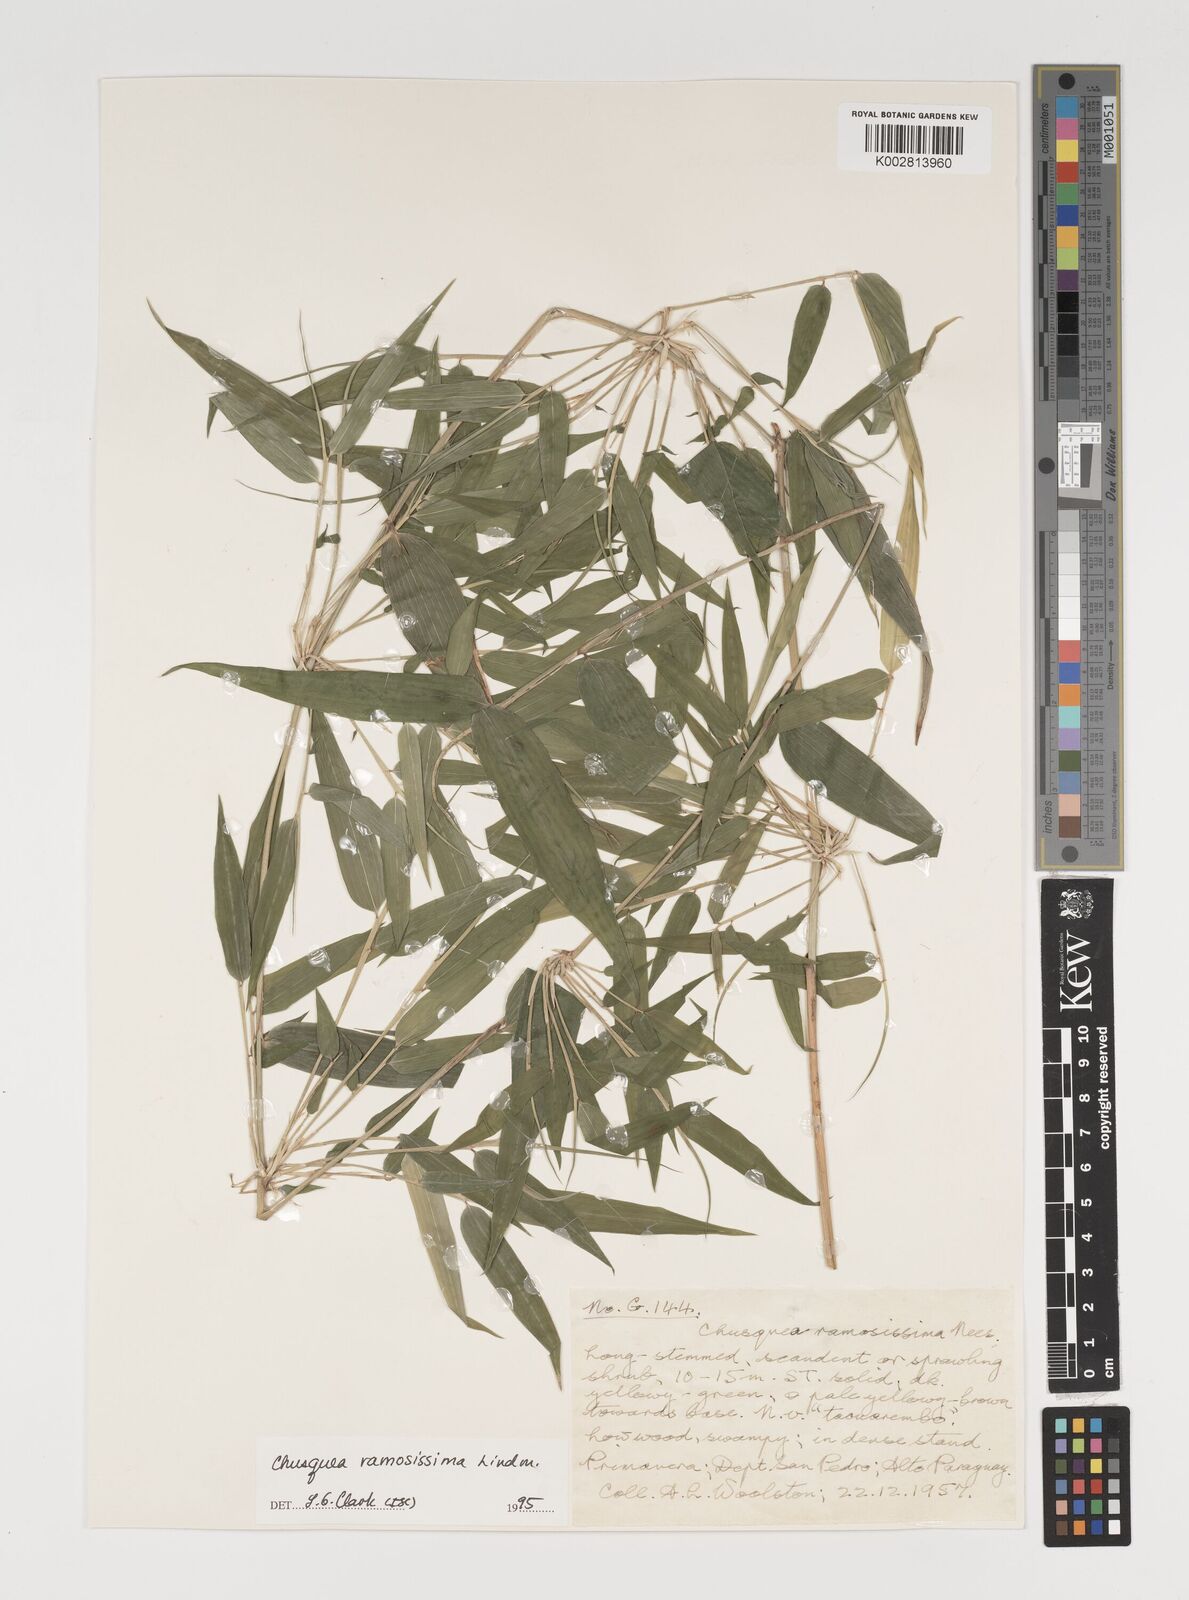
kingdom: Plantae
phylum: Tracheophyta
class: Liliopsida
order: Poales
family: Poaceae
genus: Chusquea
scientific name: Chusquea ramosissima
